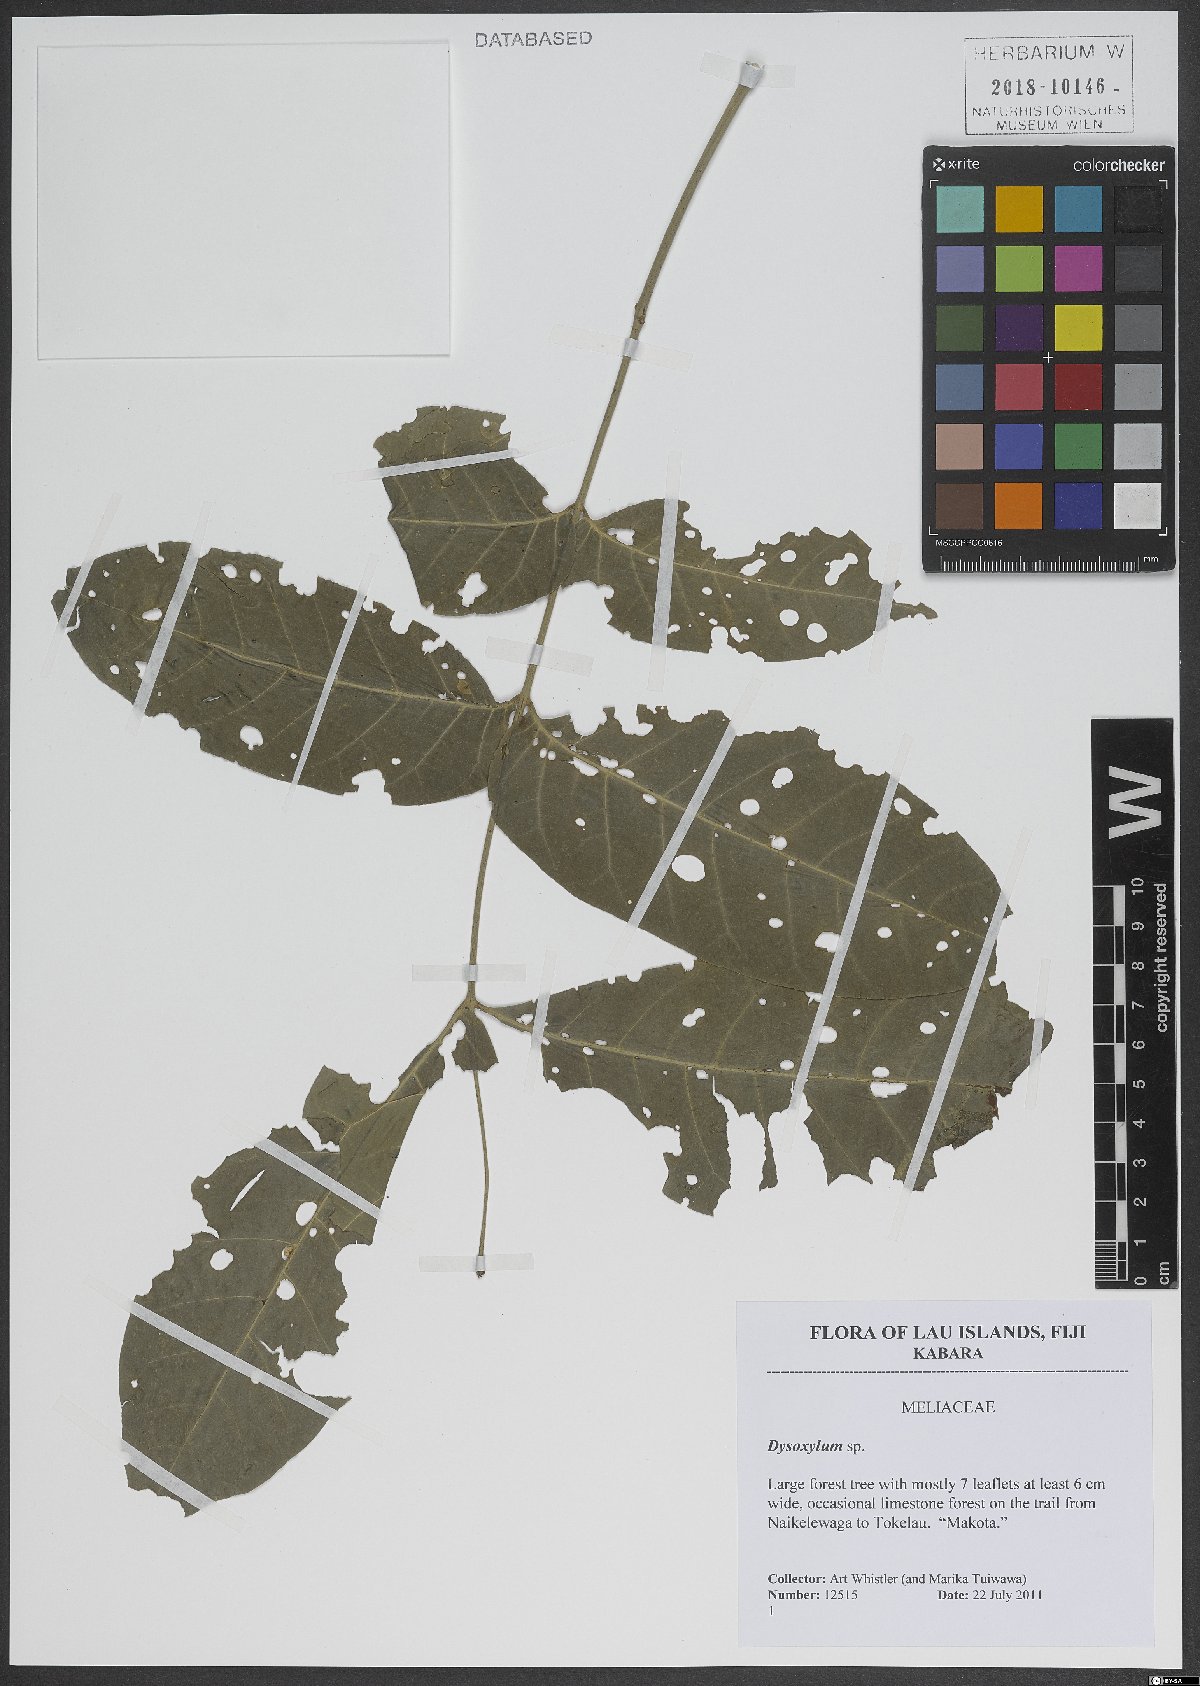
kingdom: Plantae
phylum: Tracheophyta
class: Magnoliopsida
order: Sapindales
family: Meliaceae
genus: Dysoxylum
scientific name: Dysoxylum
